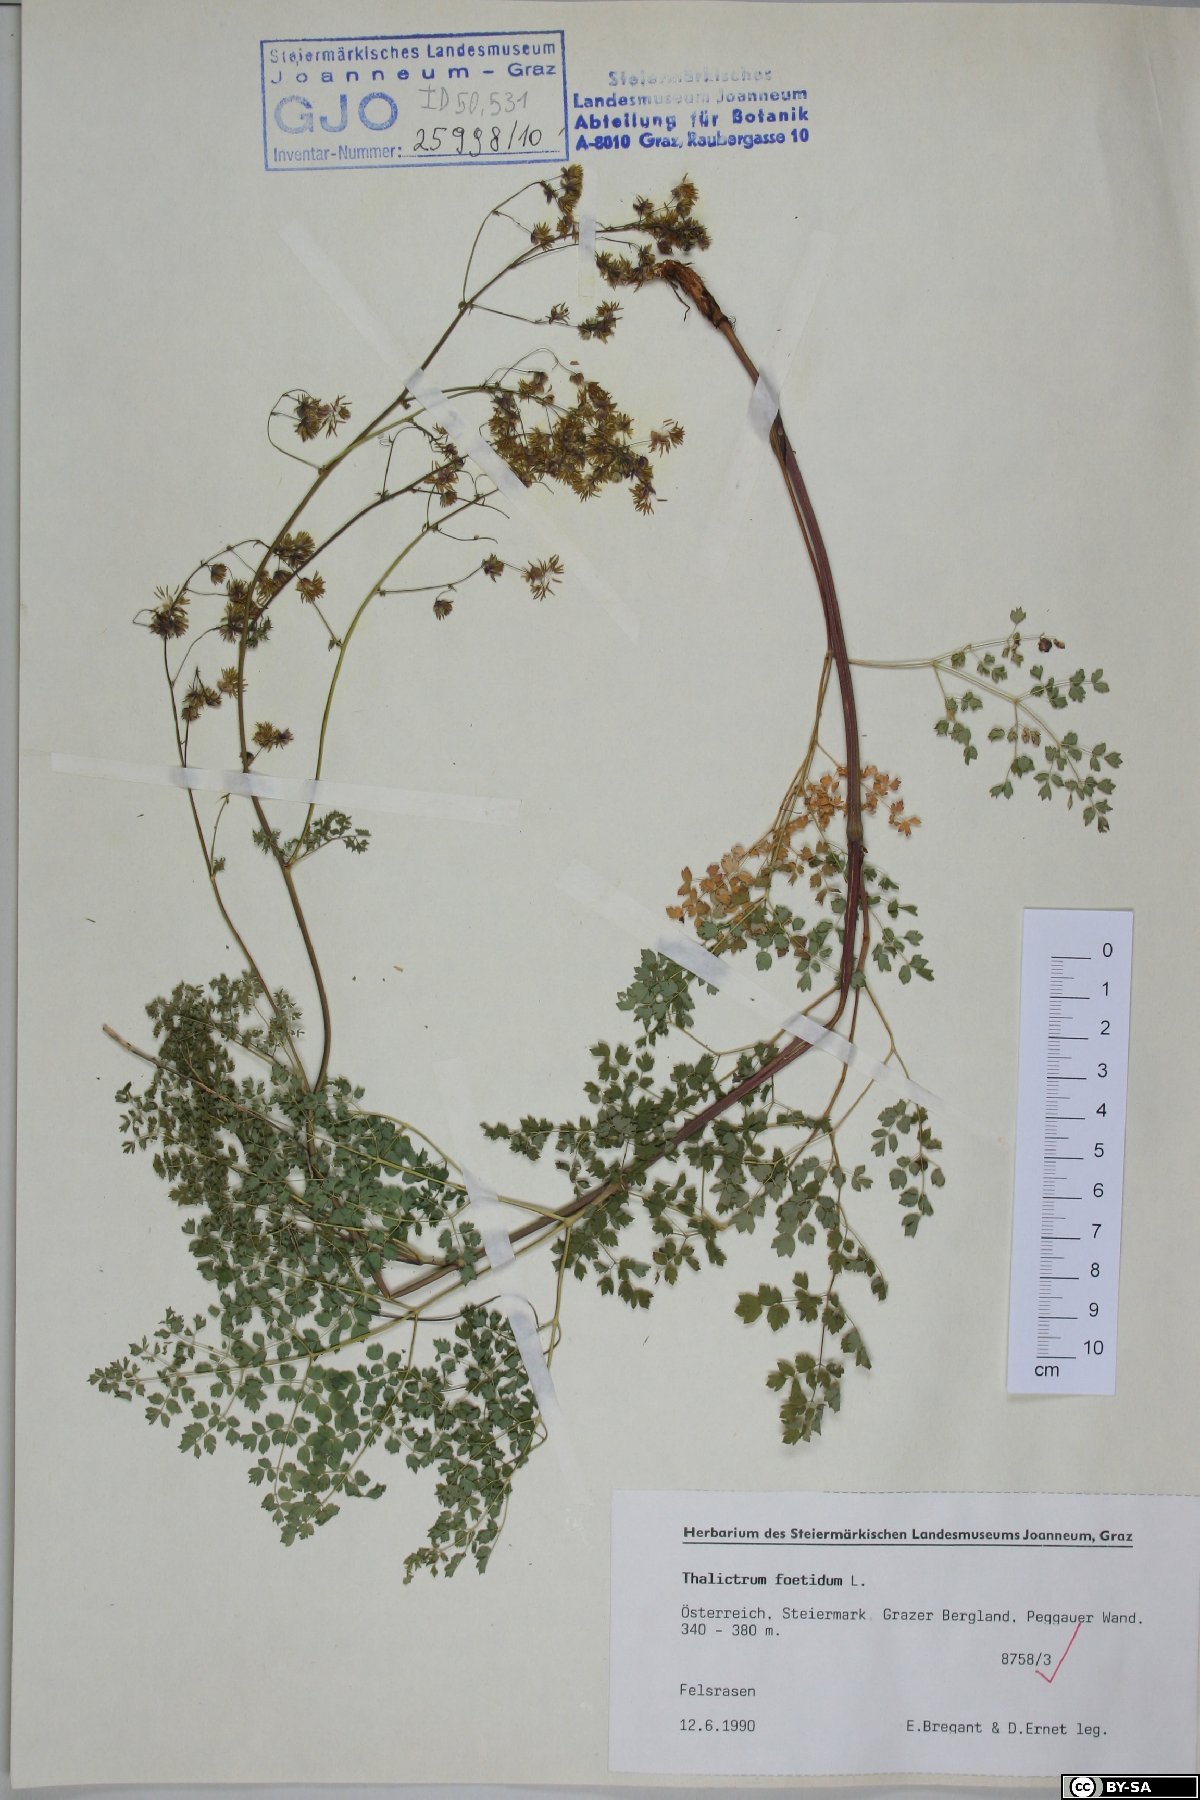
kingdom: Plantae
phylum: Tracheophyta
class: Magnoliopsida
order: Ranunculales
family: Ranunculaceae
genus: Thalictrum
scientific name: Thalictrum foetidum
